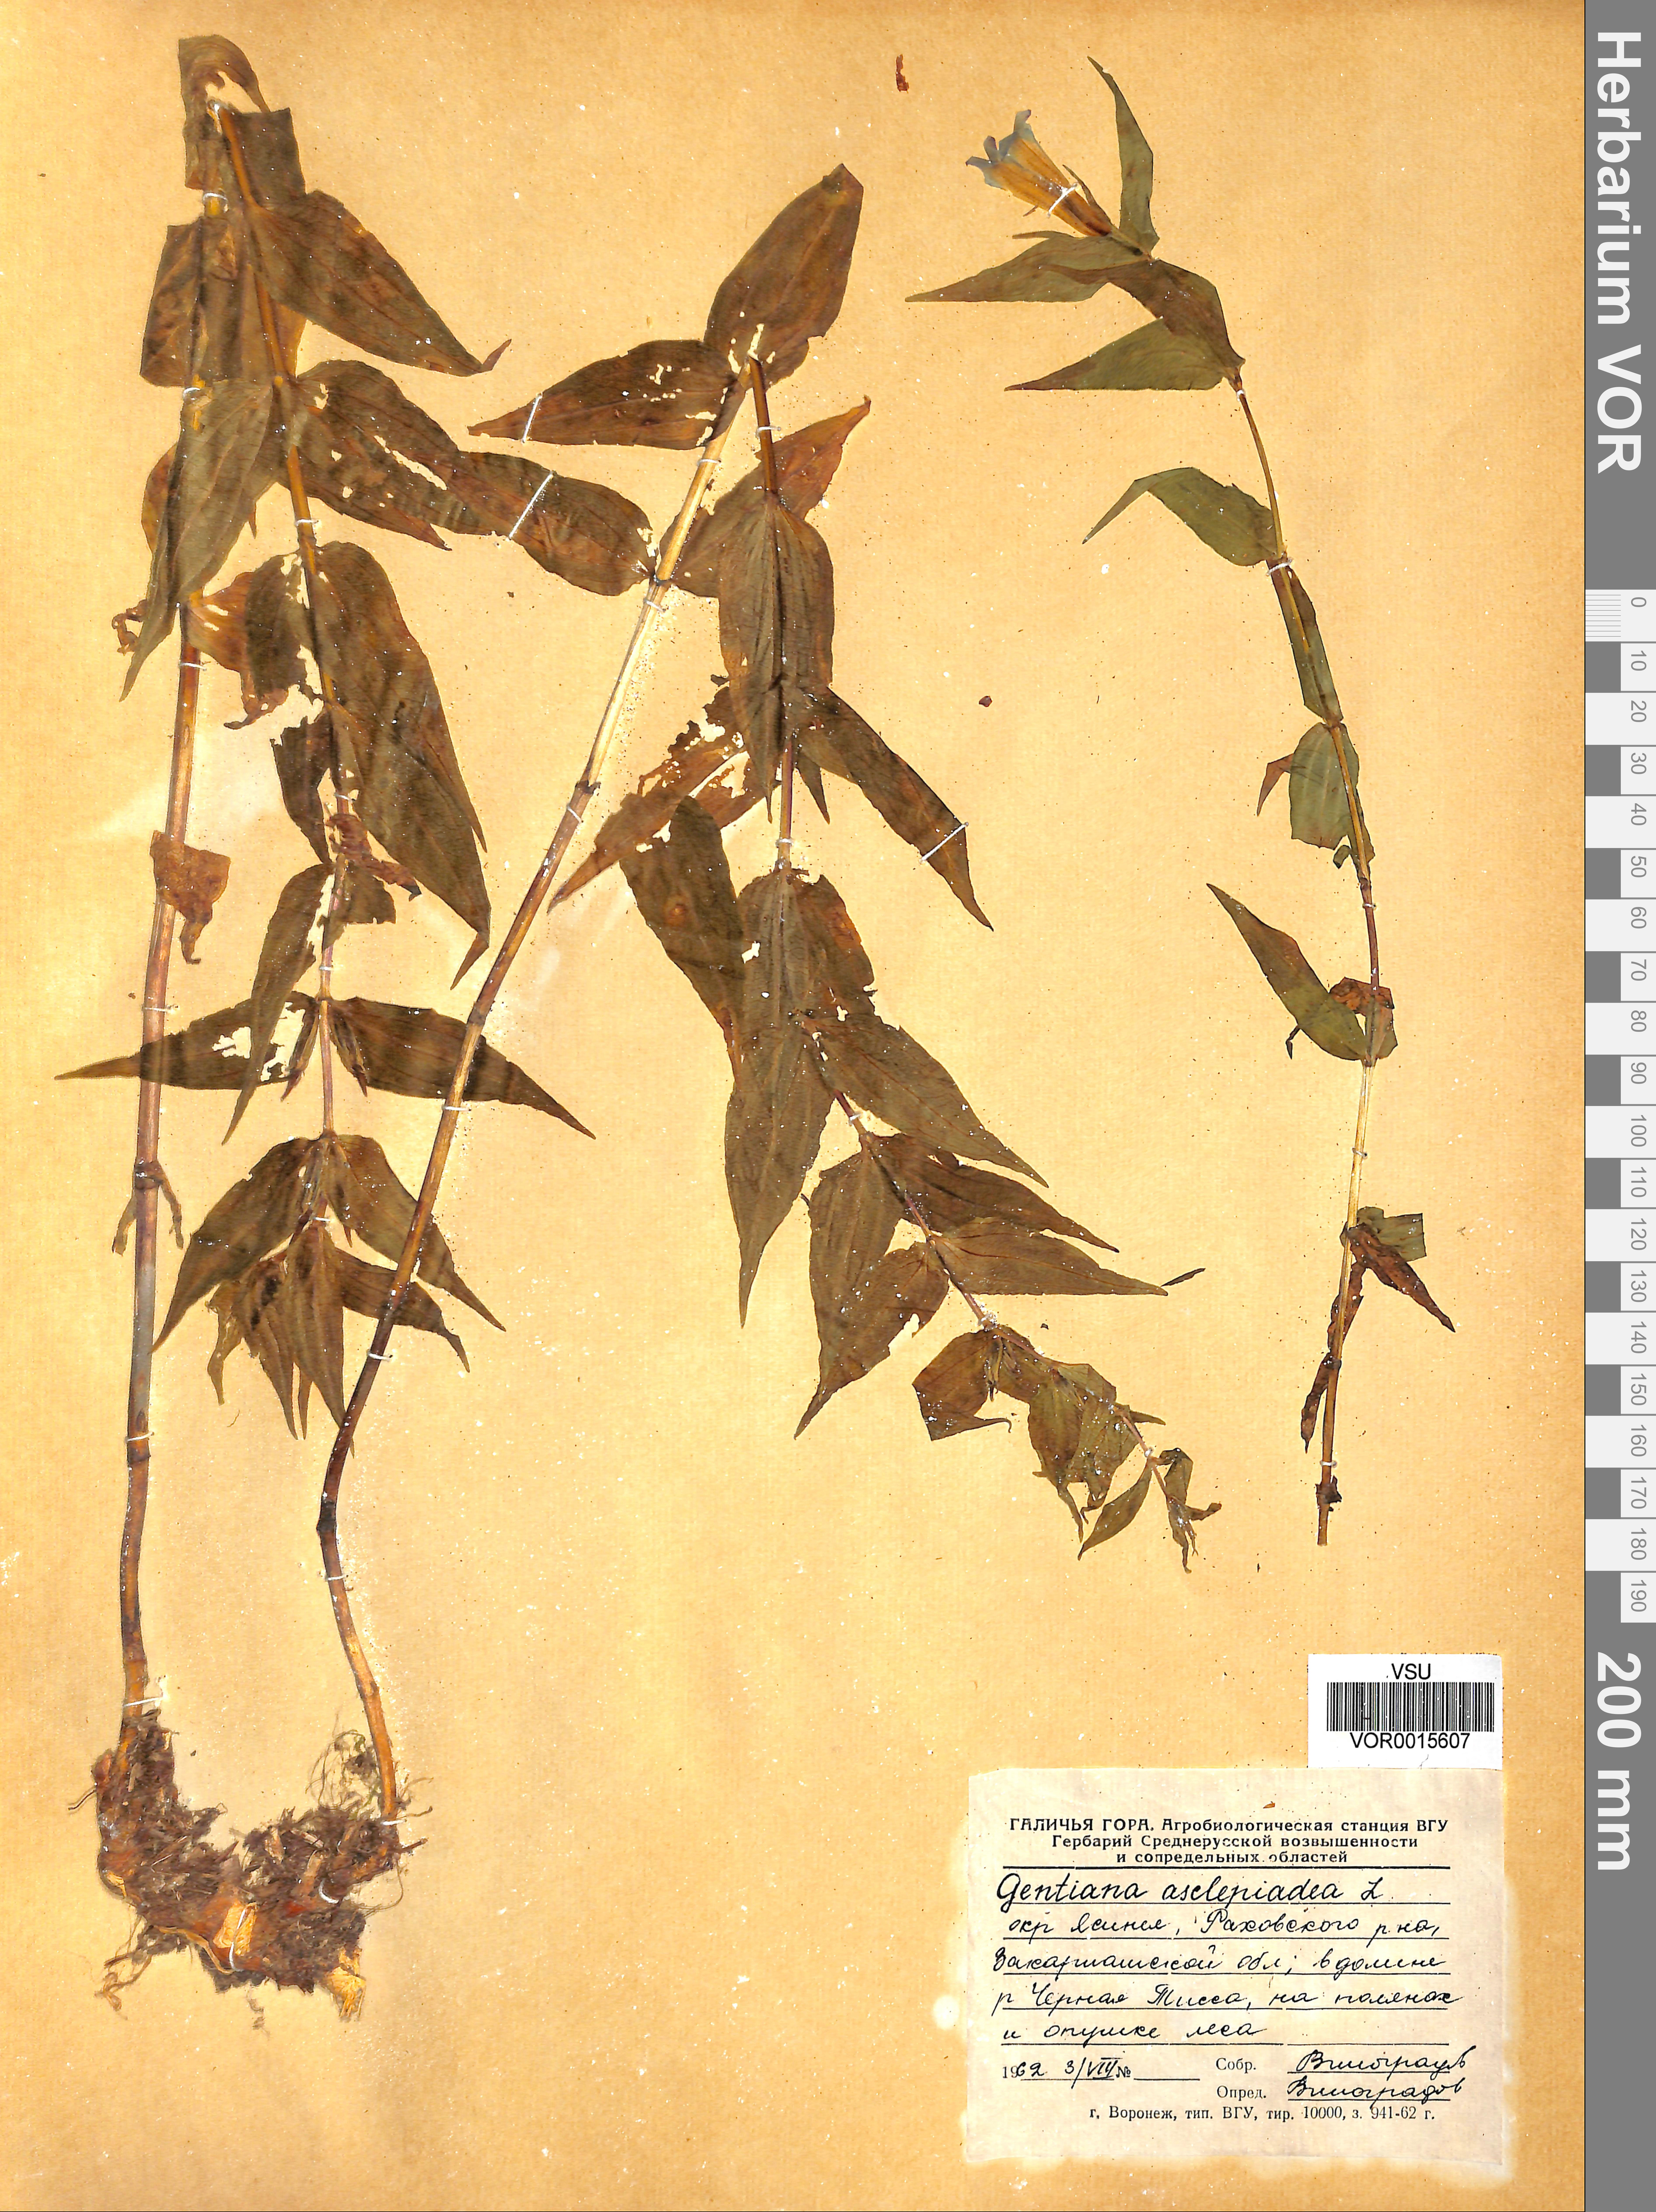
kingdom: Plantae
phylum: Tracheophyta
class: Magnoliopsida
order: Gentianales
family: Gentianaceae
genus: Gentiana
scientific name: Gentiana asclepiadea
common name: Willow gentian
